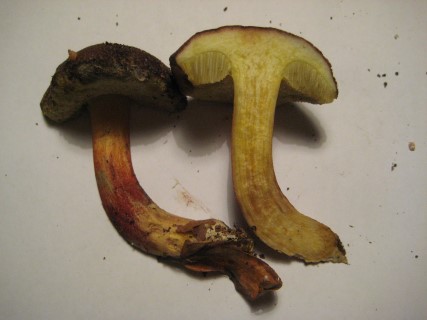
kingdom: Fungi
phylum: Basidiomycota
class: Agaricomycetes
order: Boletales
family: Boletaceae
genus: Xerocomellus
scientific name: Xerocomellus chrysenteron
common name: rødsprukken rørhat
